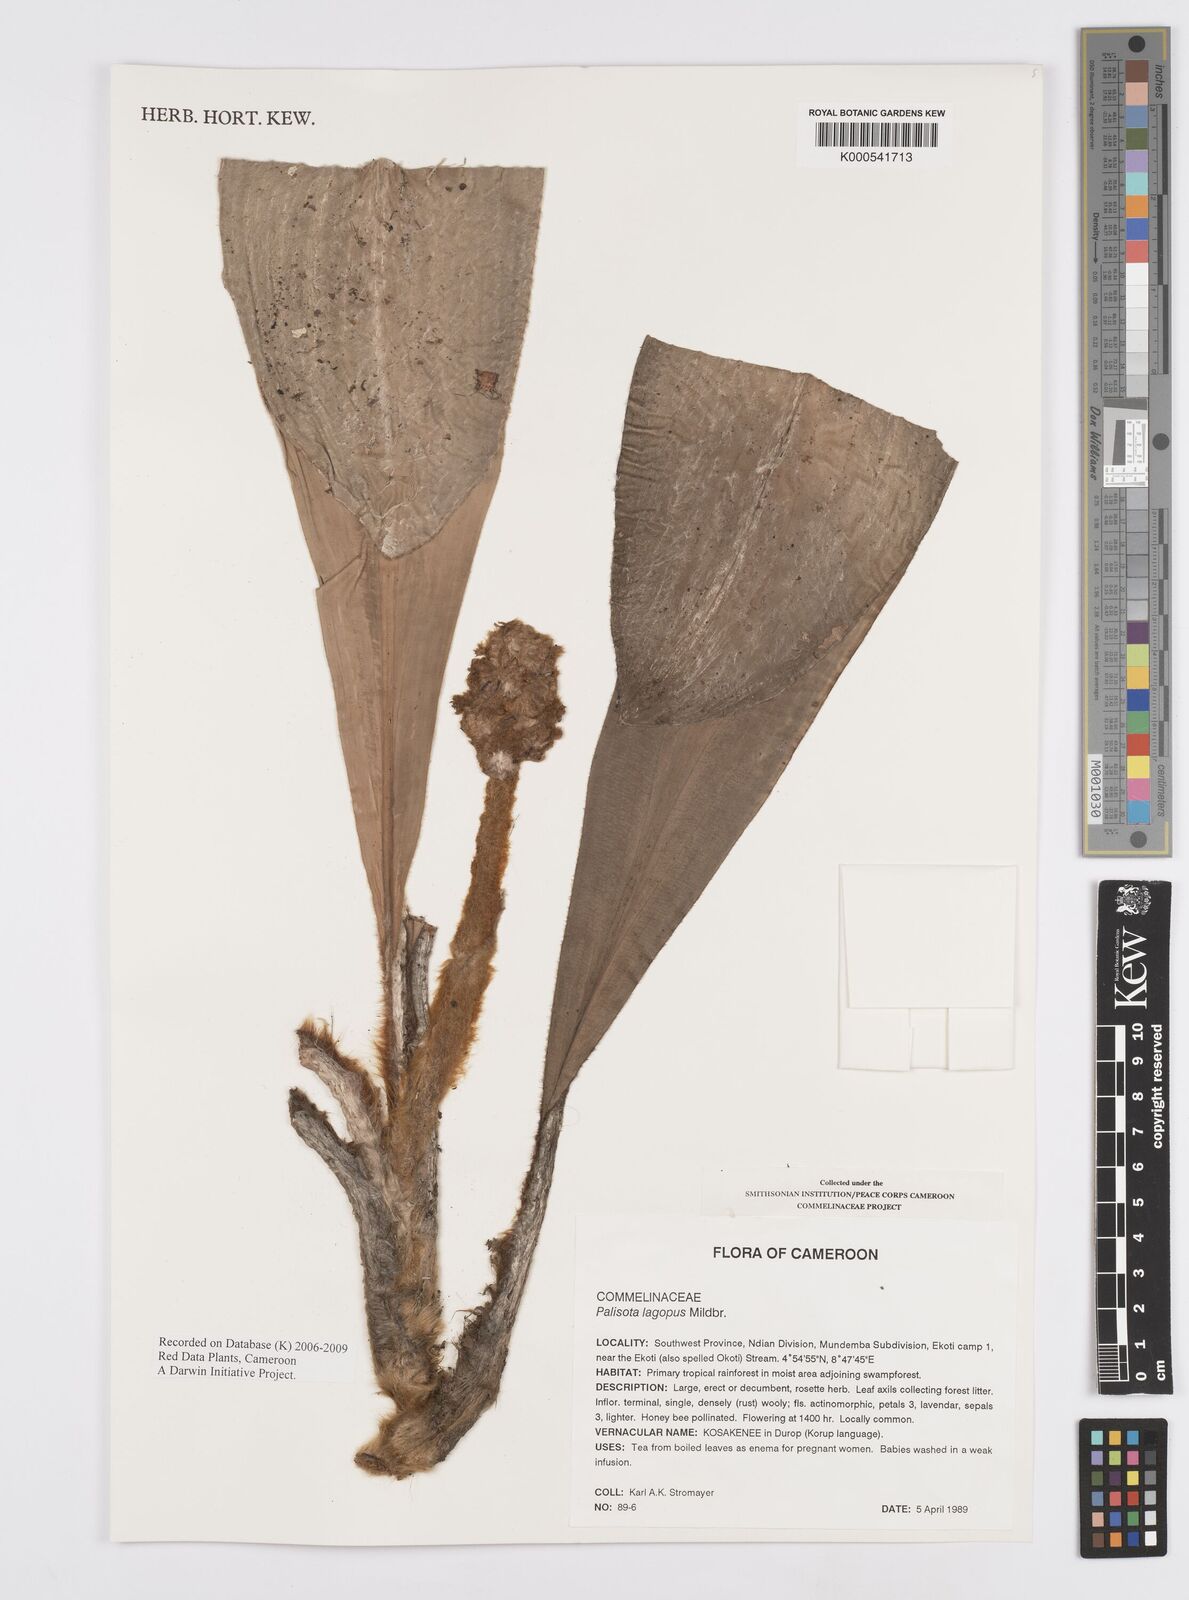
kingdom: Plantae
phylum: Tracheophyta
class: Liliopsida
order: Commelinales
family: Commelinaceae
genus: Palisota
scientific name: Palisota lagopus
